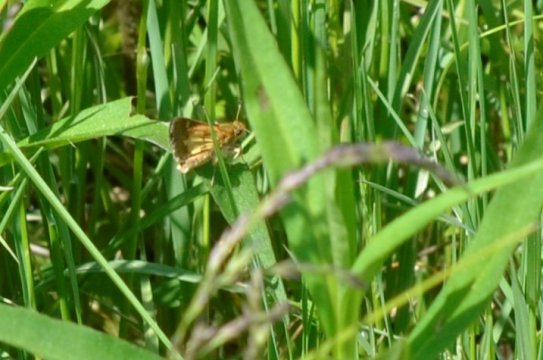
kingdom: Animalia
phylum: Arthropoda
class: Insecta
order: Lepidoptera
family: Hesperiidae
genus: Lon
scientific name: Lon hobomok
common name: Hobomok Skipper
